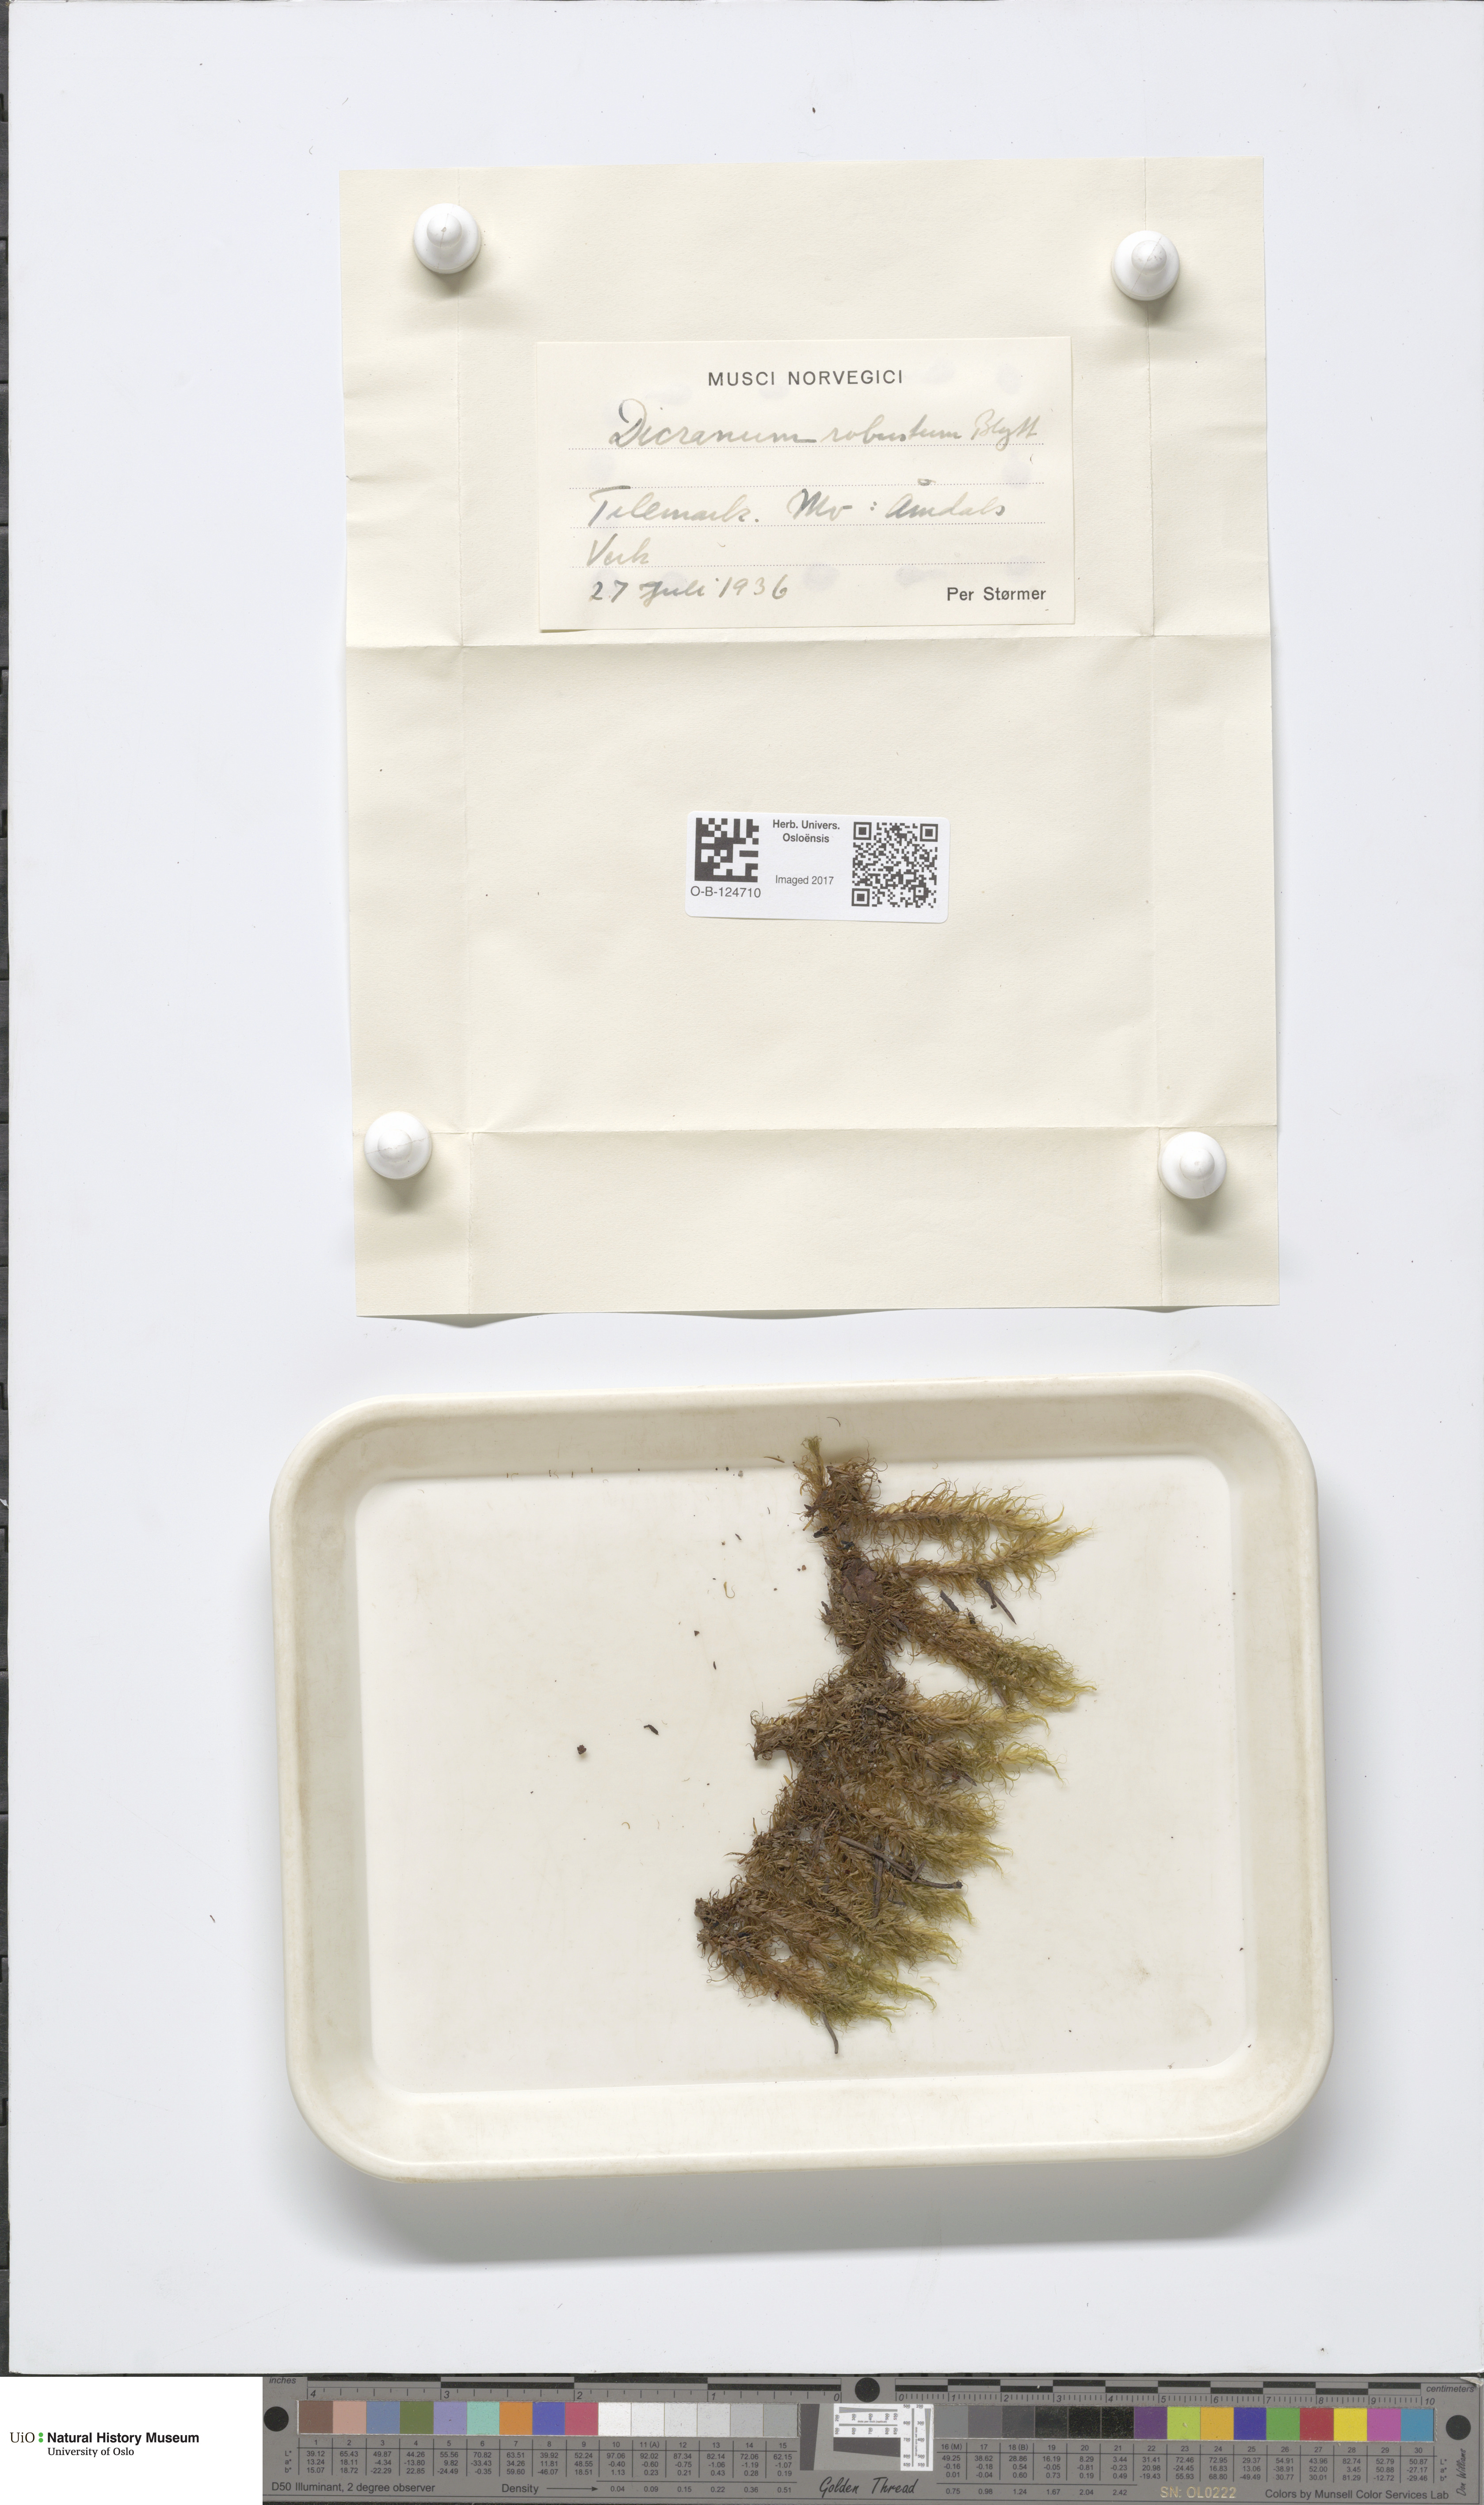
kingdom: Plantae
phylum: Bryophyta
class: Bryopsida
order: Dicranales
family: Dicranaceae
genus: Dicranum
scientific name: Dicranum drummondii
